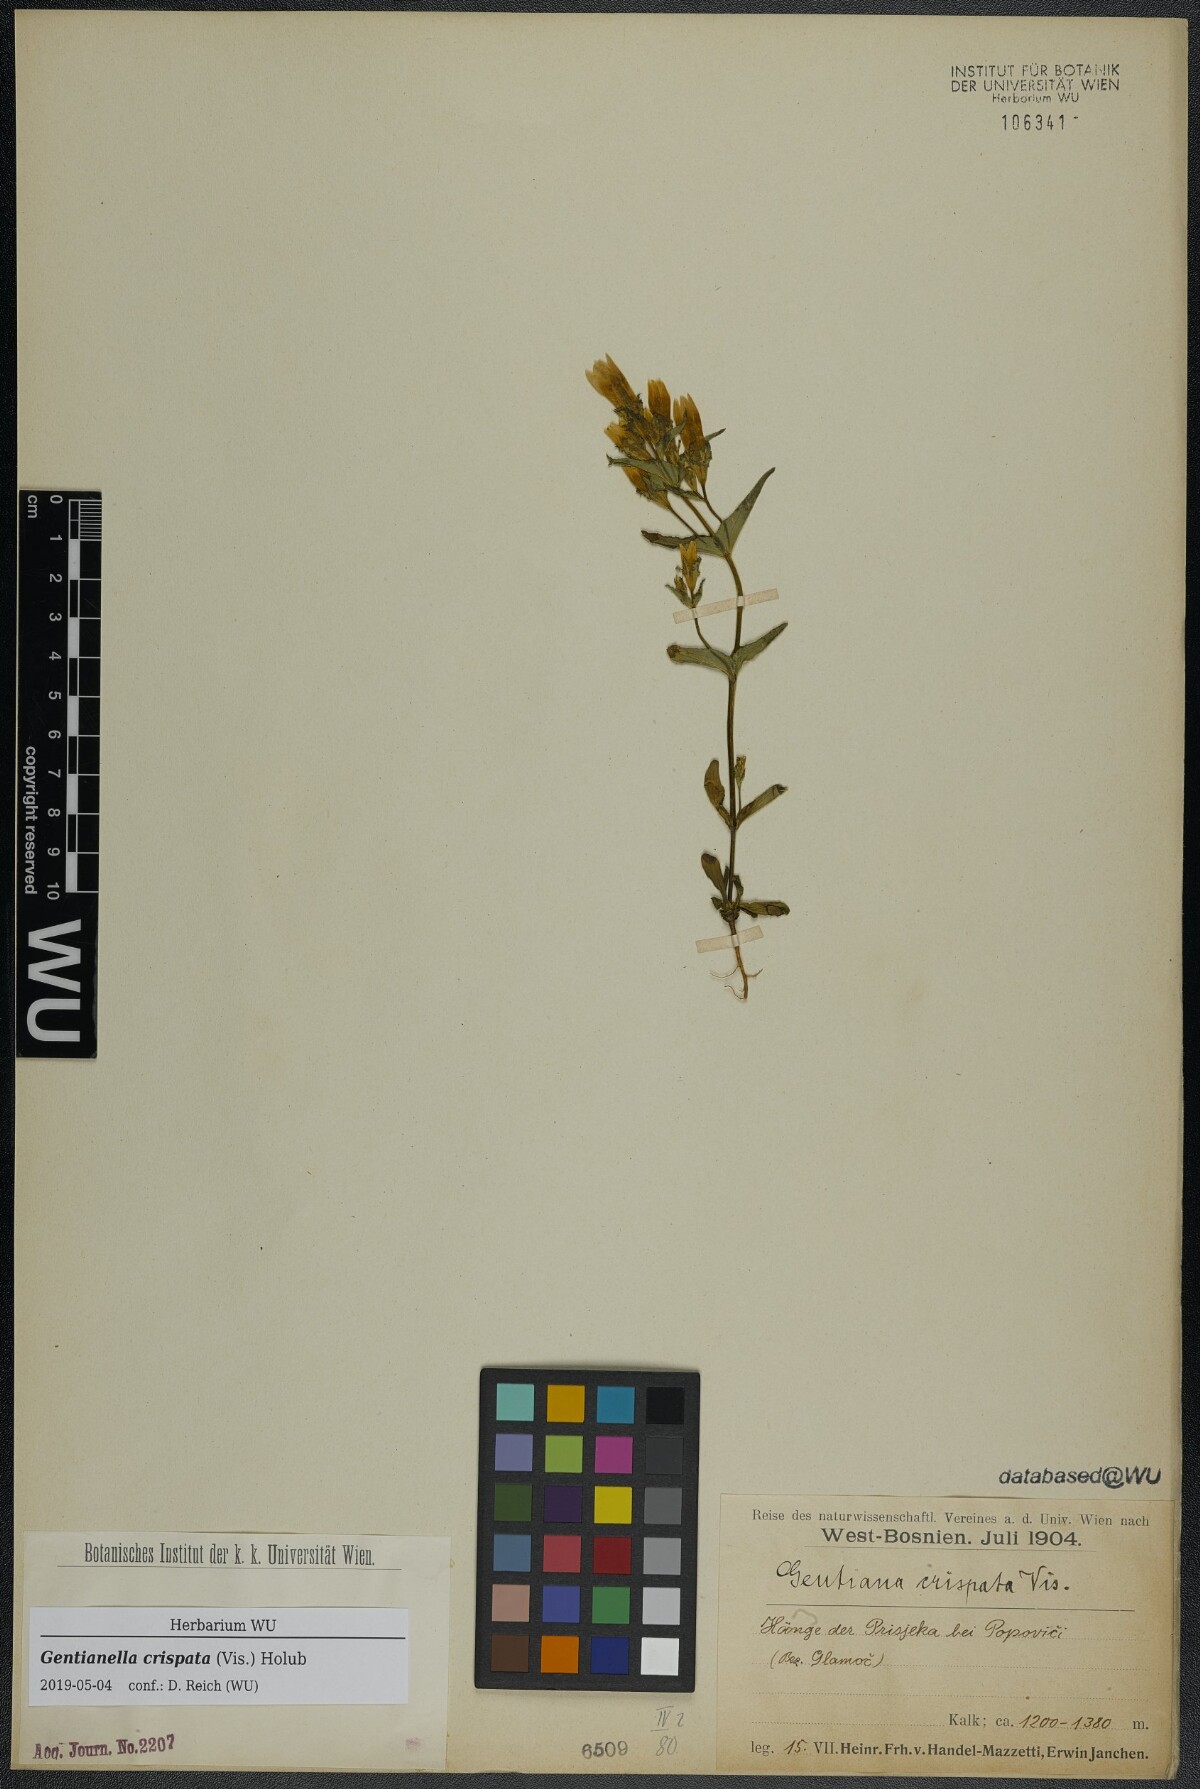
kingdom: Plantae
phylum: Tracheophyta
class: Magnoliopsida
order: Gentianales
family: Gentianaceae
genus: Gentianella
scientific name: Gentianella crispata
